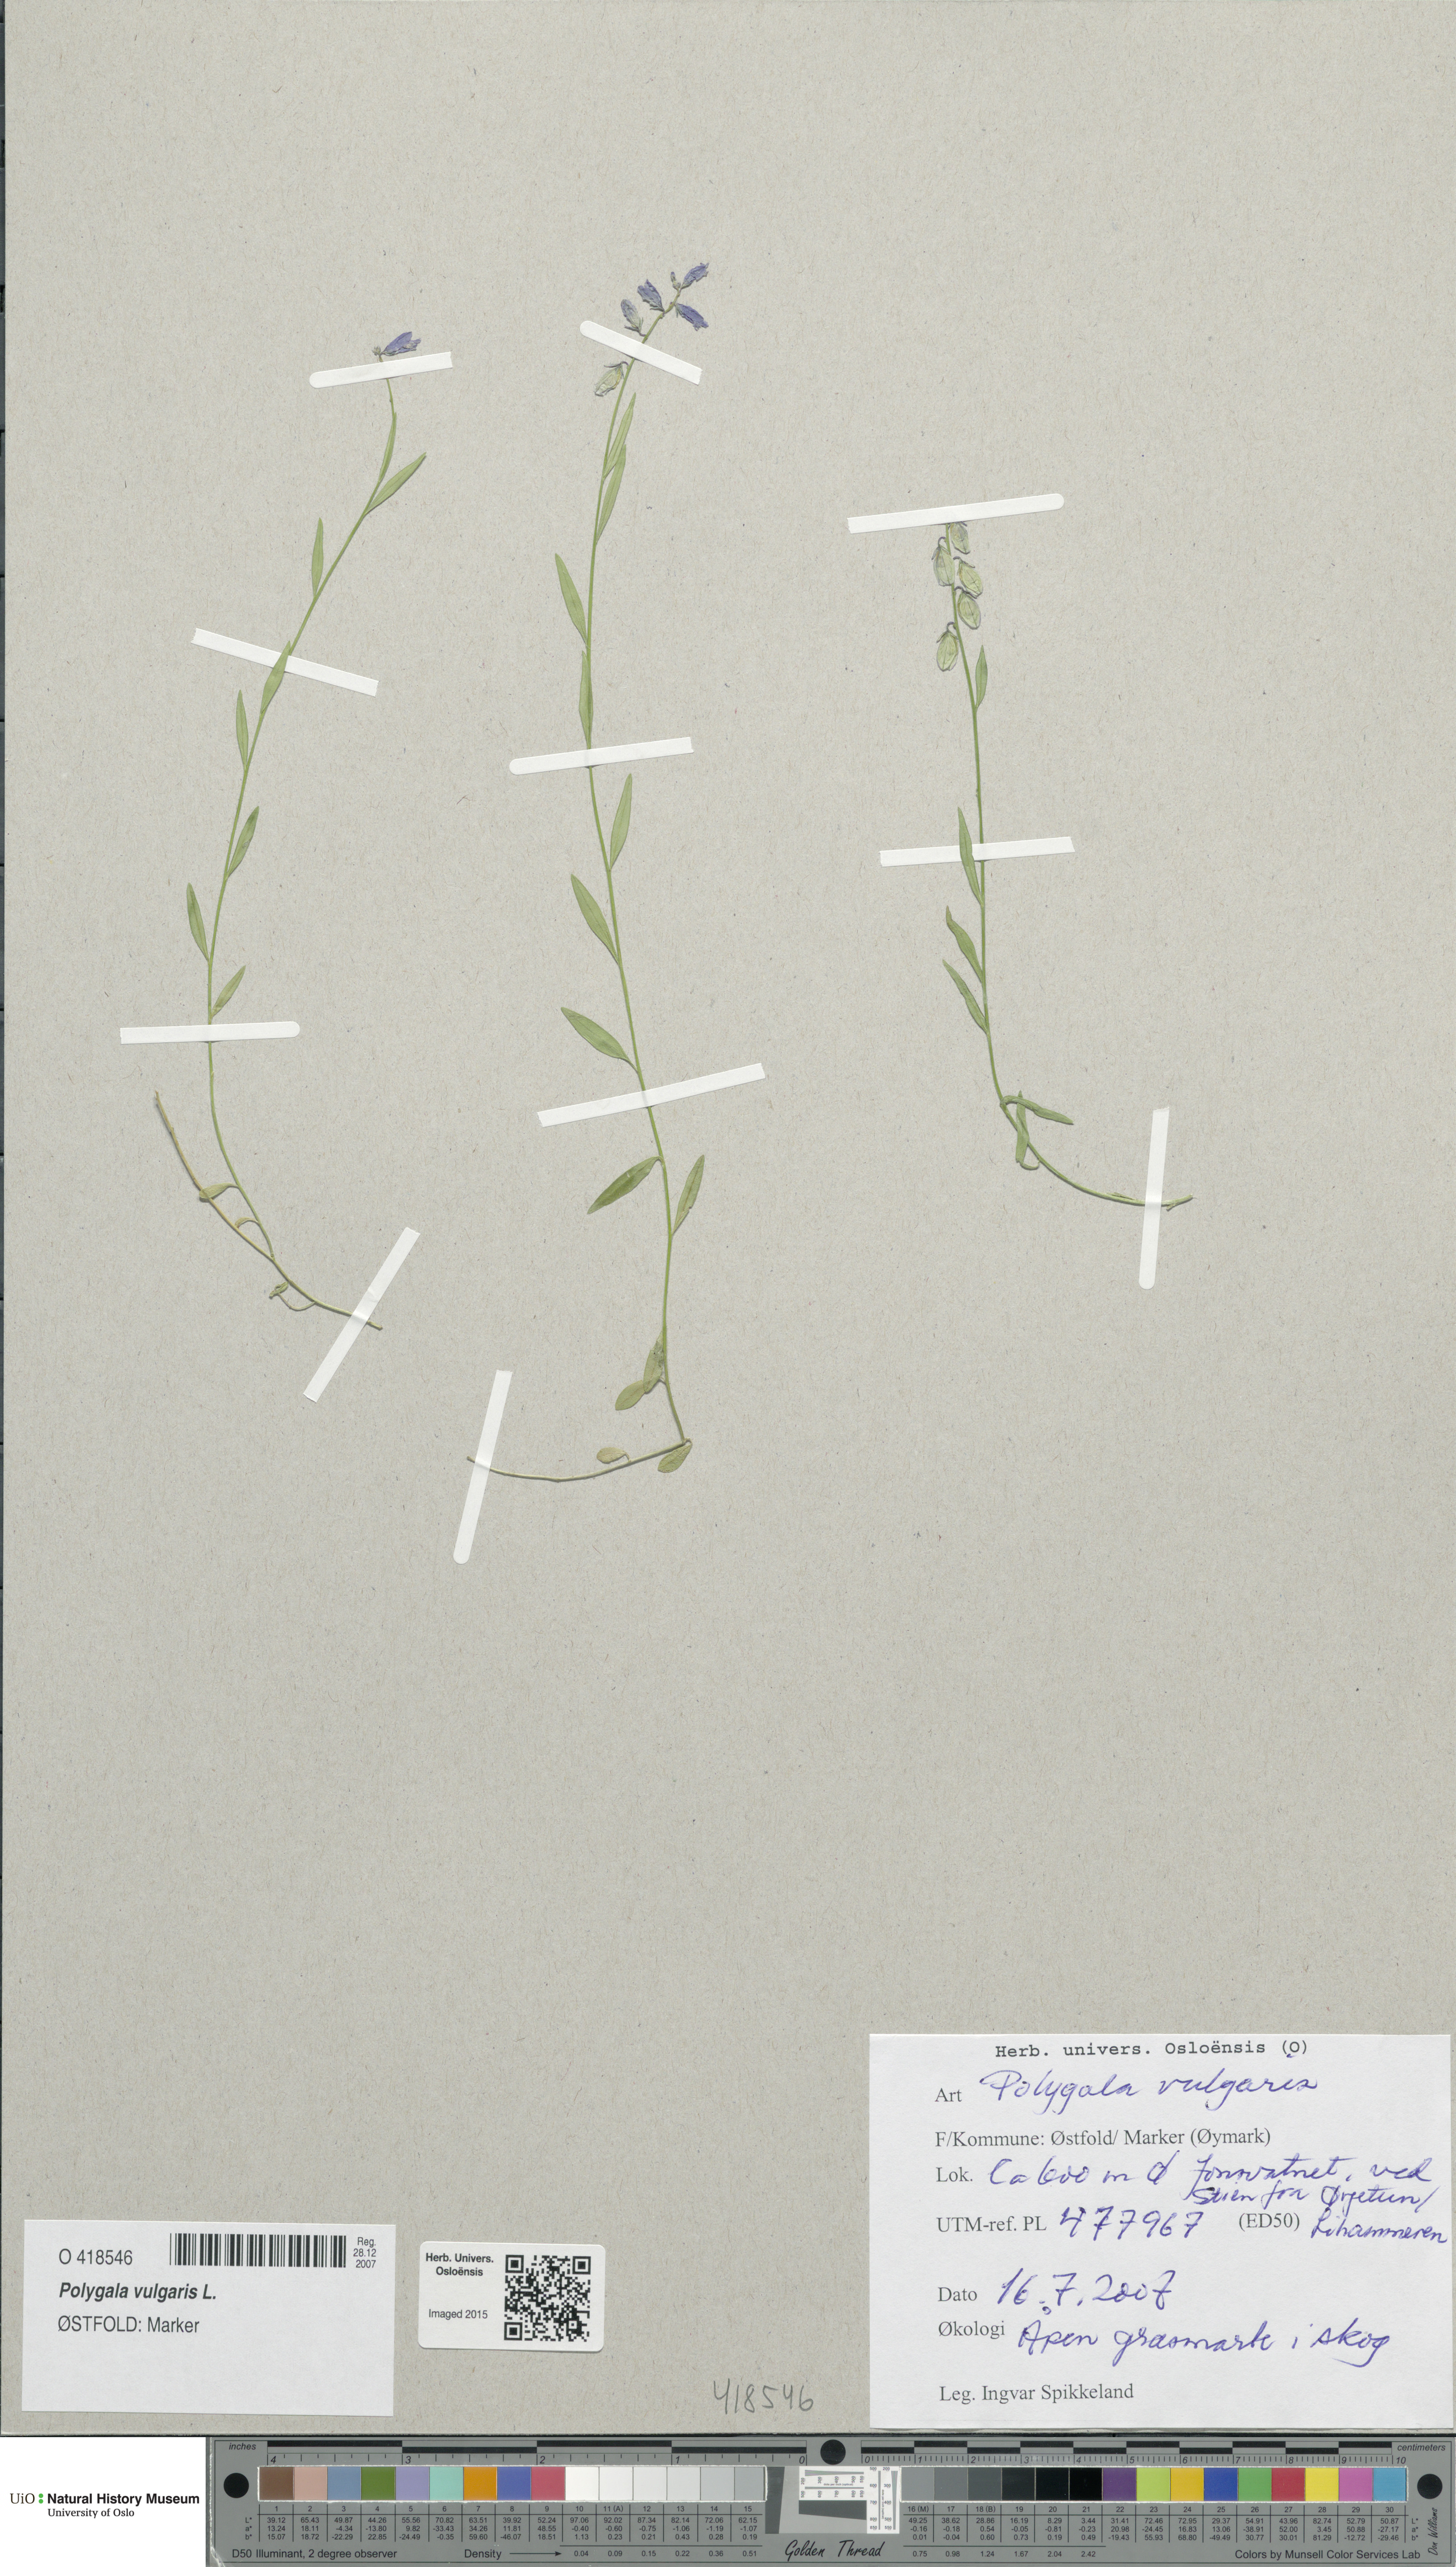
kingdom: Plantae
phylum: Tracheophyta
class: Magnoliopsida
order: Fabales
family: Polygalaceae
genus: Polygala
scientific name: Polygala vulgaris
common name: Common milkwort
